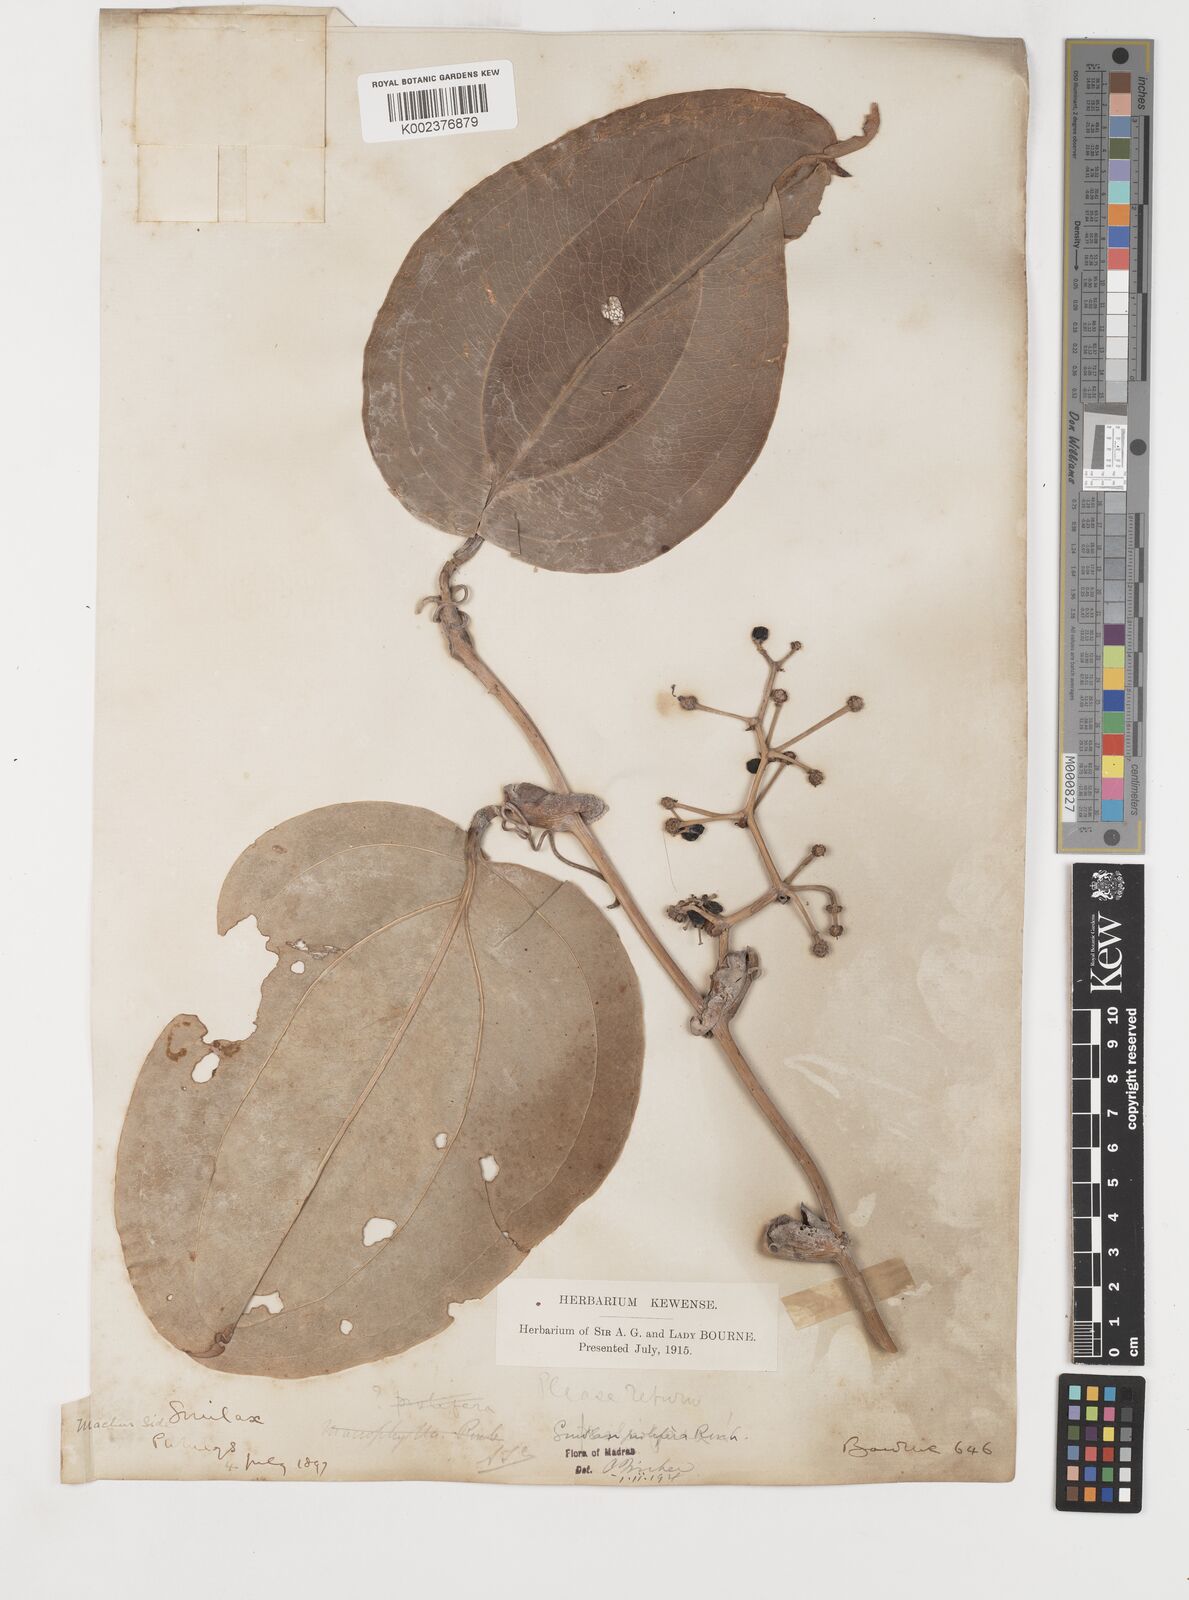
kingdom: Plantae
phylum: Tracheophyta
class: Liliopsida
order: Liliales
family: Smilacaceae
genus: Smilax
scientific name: Smilax prolifera
